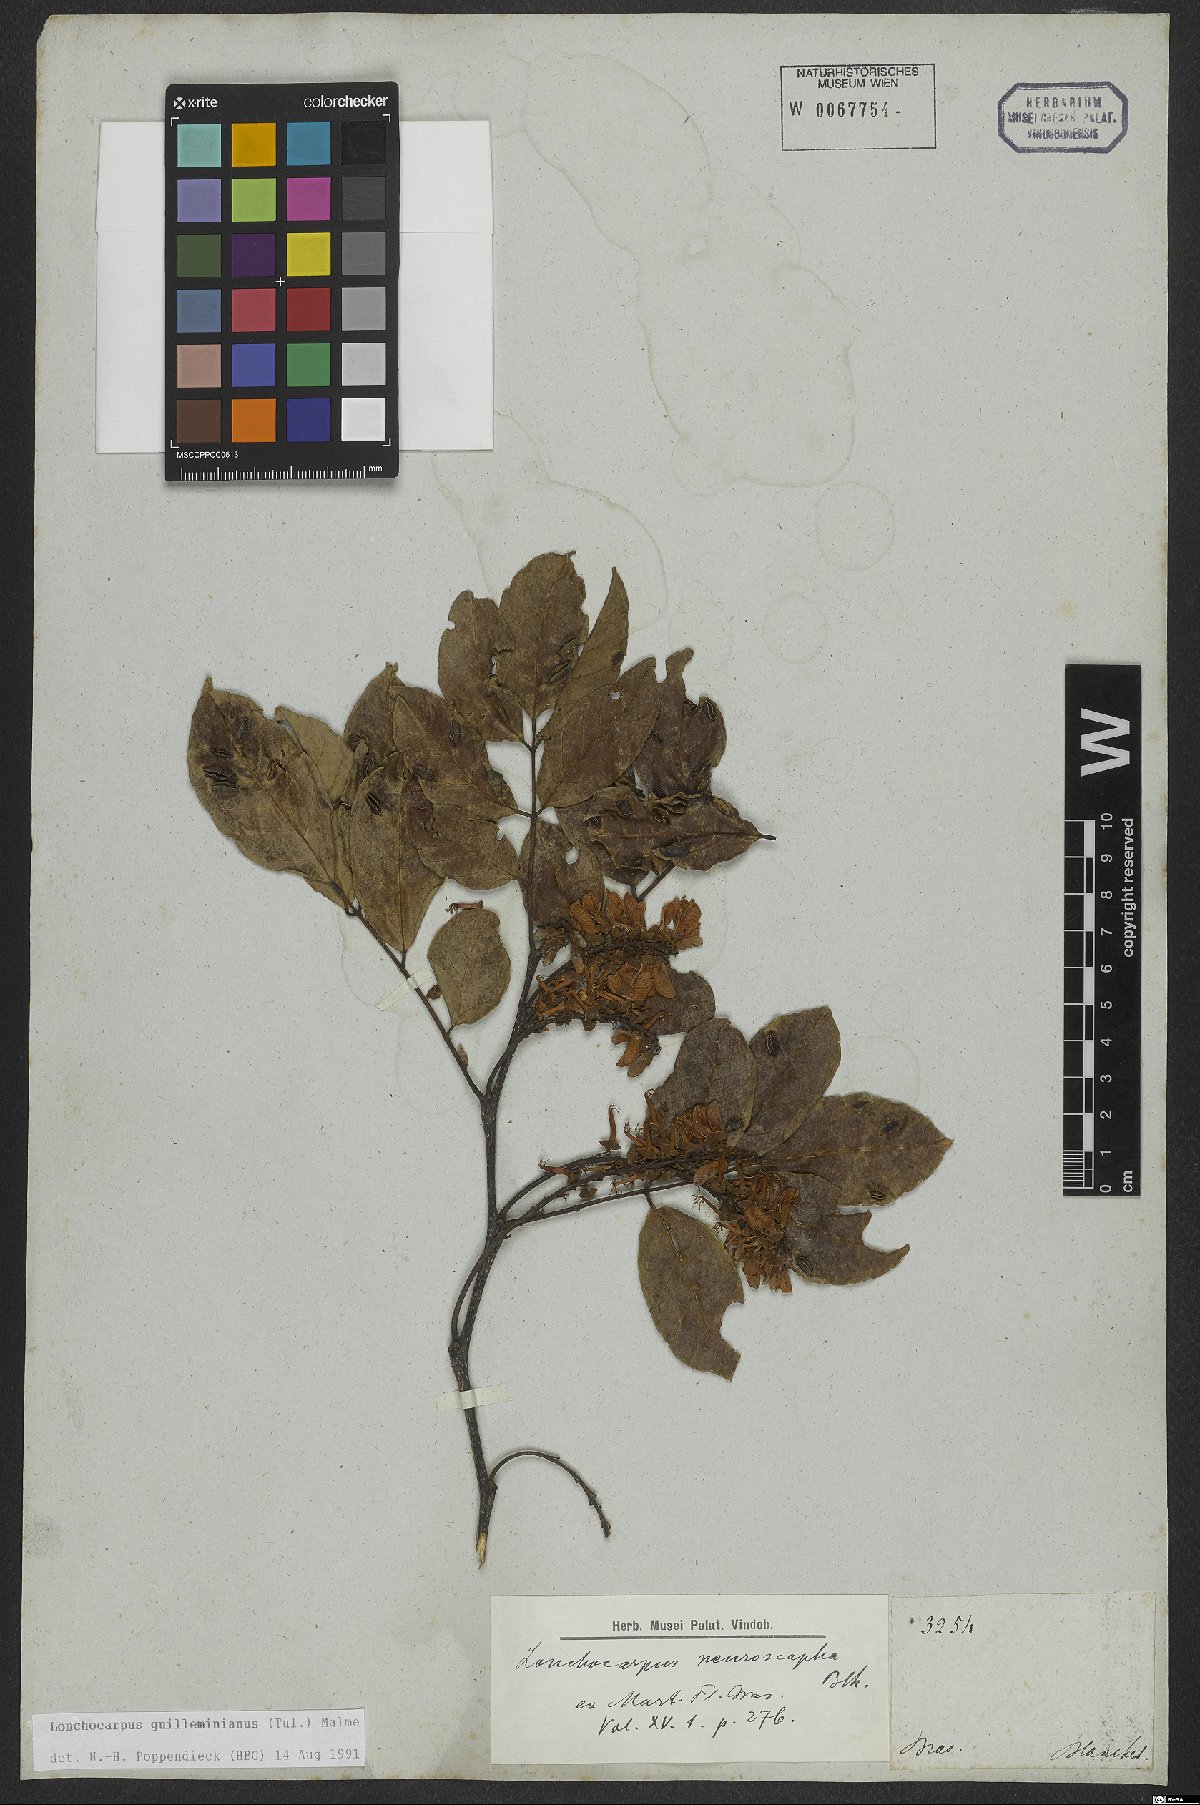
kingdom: Plantae
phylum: Tracheophyta
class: Magnoliopsida
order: Fabales
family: Fabaceae
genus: Lonchocarpus
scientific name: Lonchocarpus cultratus
